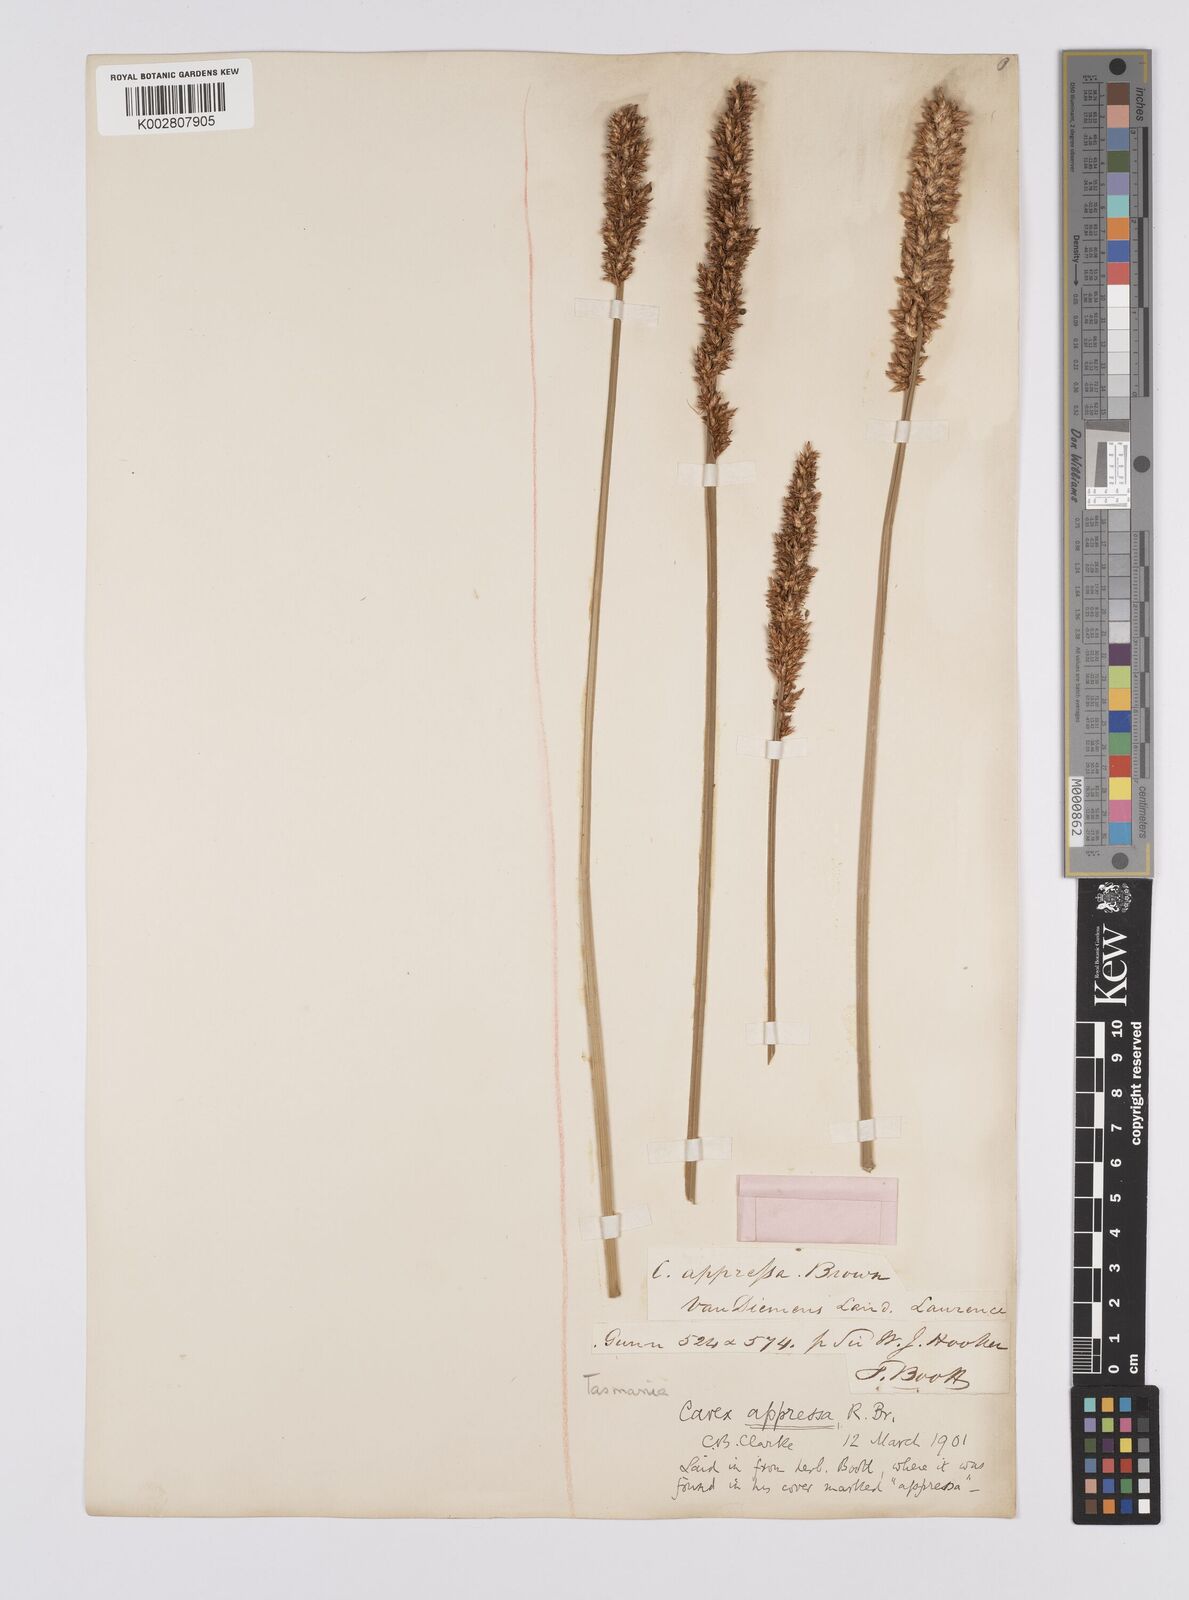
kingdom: Plantae
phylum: Tracheophyta
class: Liliopsida
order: Poales
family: Cyperaceae
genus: Carex
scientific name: Carex appressa
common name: Tussock sedge
